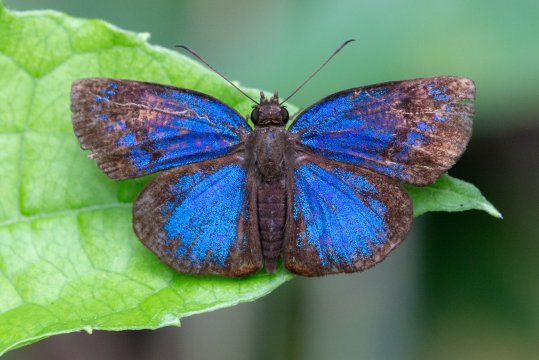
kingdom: Animalia
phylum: Arthropoda
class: Insecta
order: Lepidoptera
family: Hesperiidae
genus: Paches
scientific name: Paches loxus
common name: Glorious Blue-Skipper
